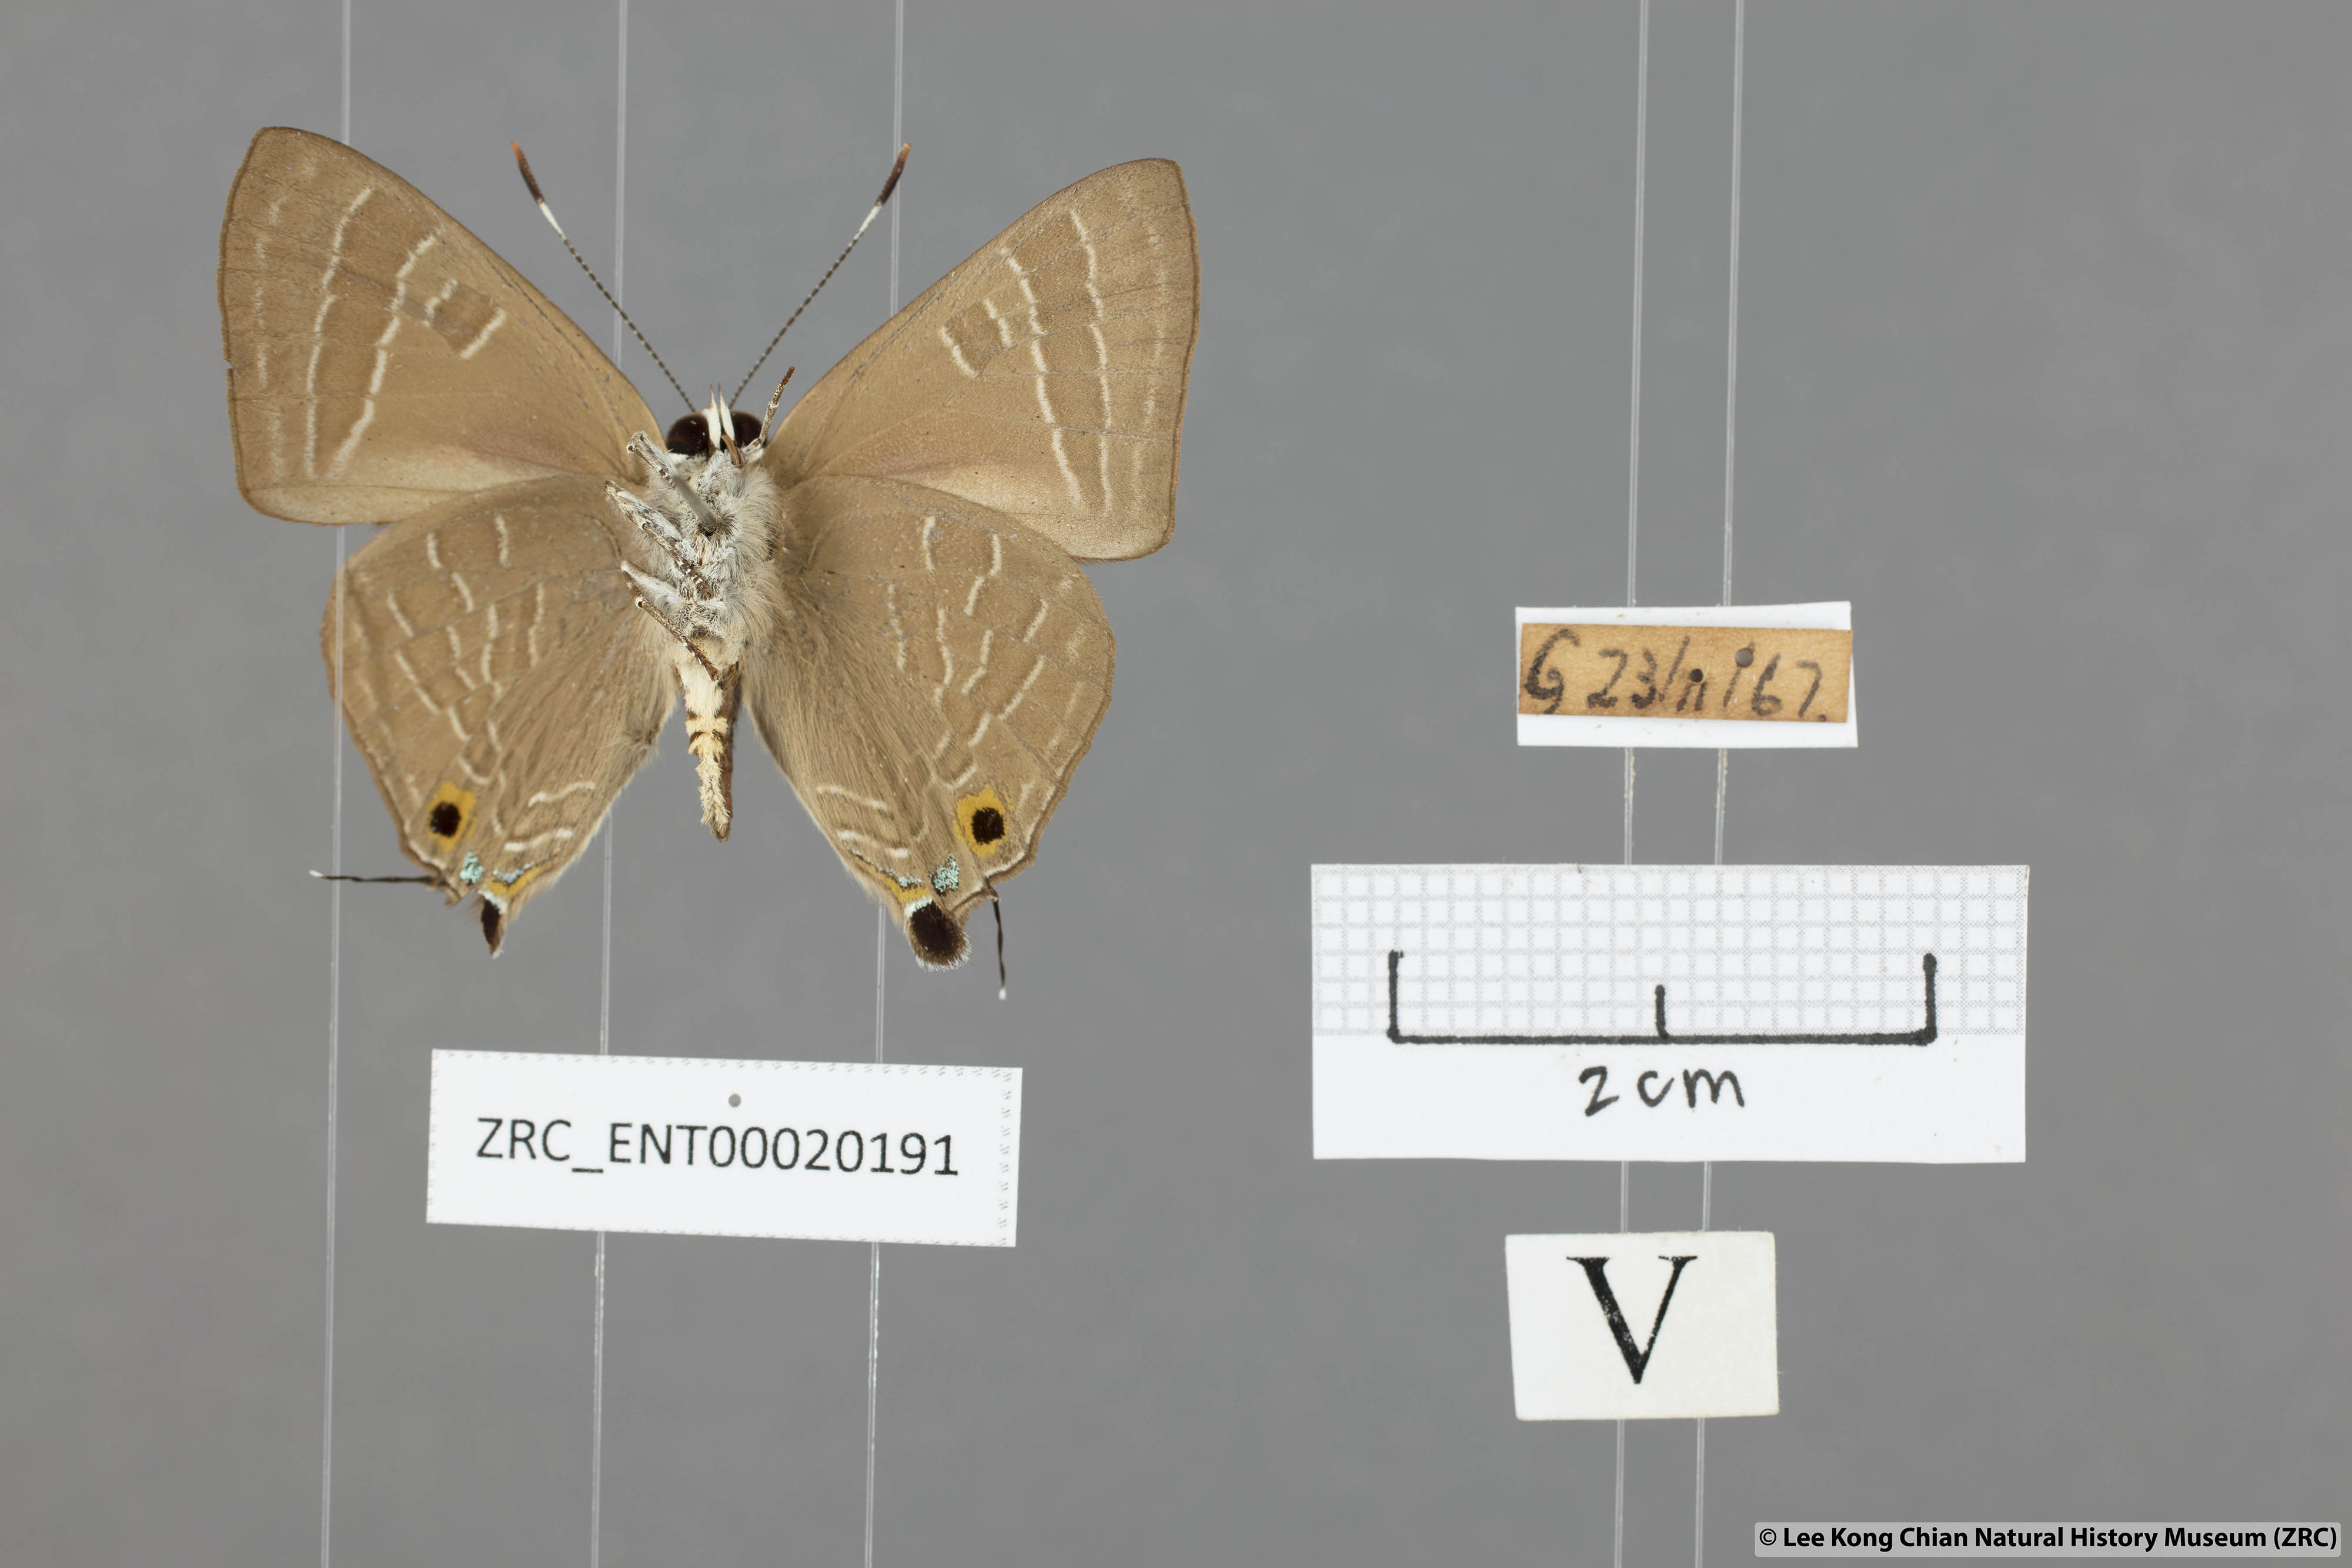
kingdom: Animalia
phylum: Arthropoda
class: Insecta
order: Lepidoptera
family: Lycaenidae
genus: Deudorix
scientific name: Deudorix epijarbas
